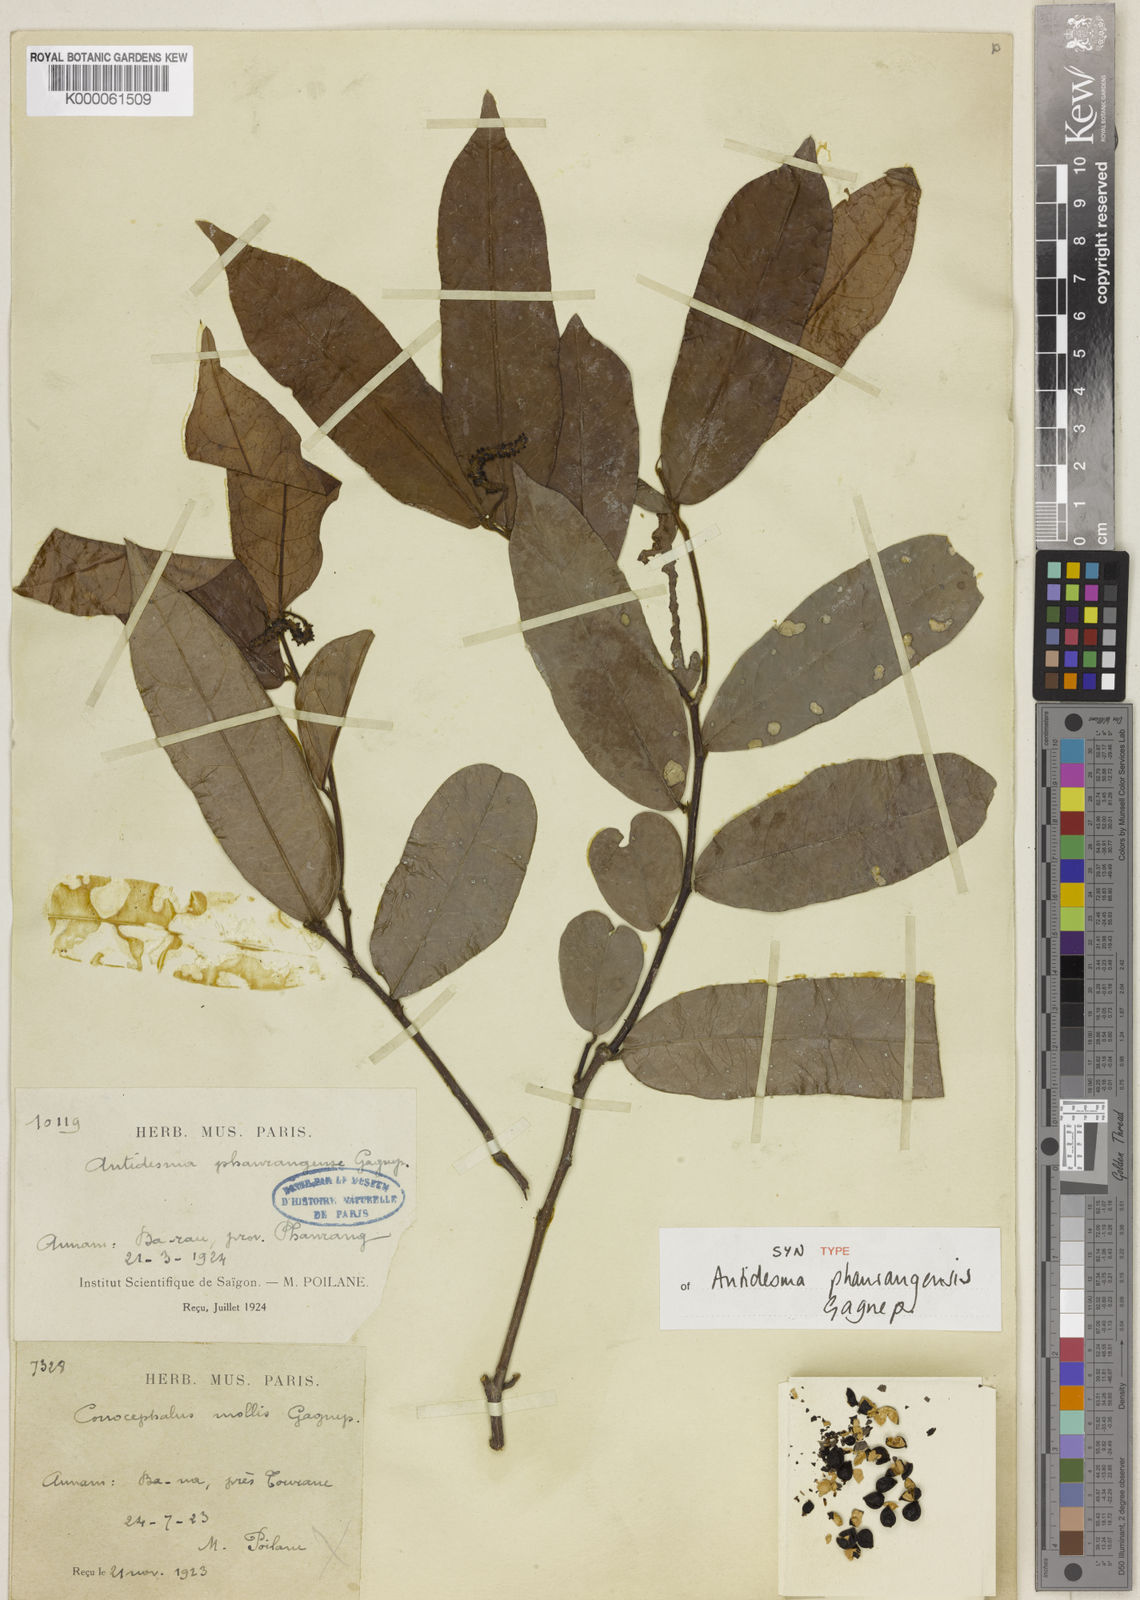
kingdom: Plantae
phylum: Tracheophyta
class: Magnoliopsida
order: Malpighiales
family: Phyllanthaceae
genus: Antidesma
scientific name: Antidesma phanrangense
